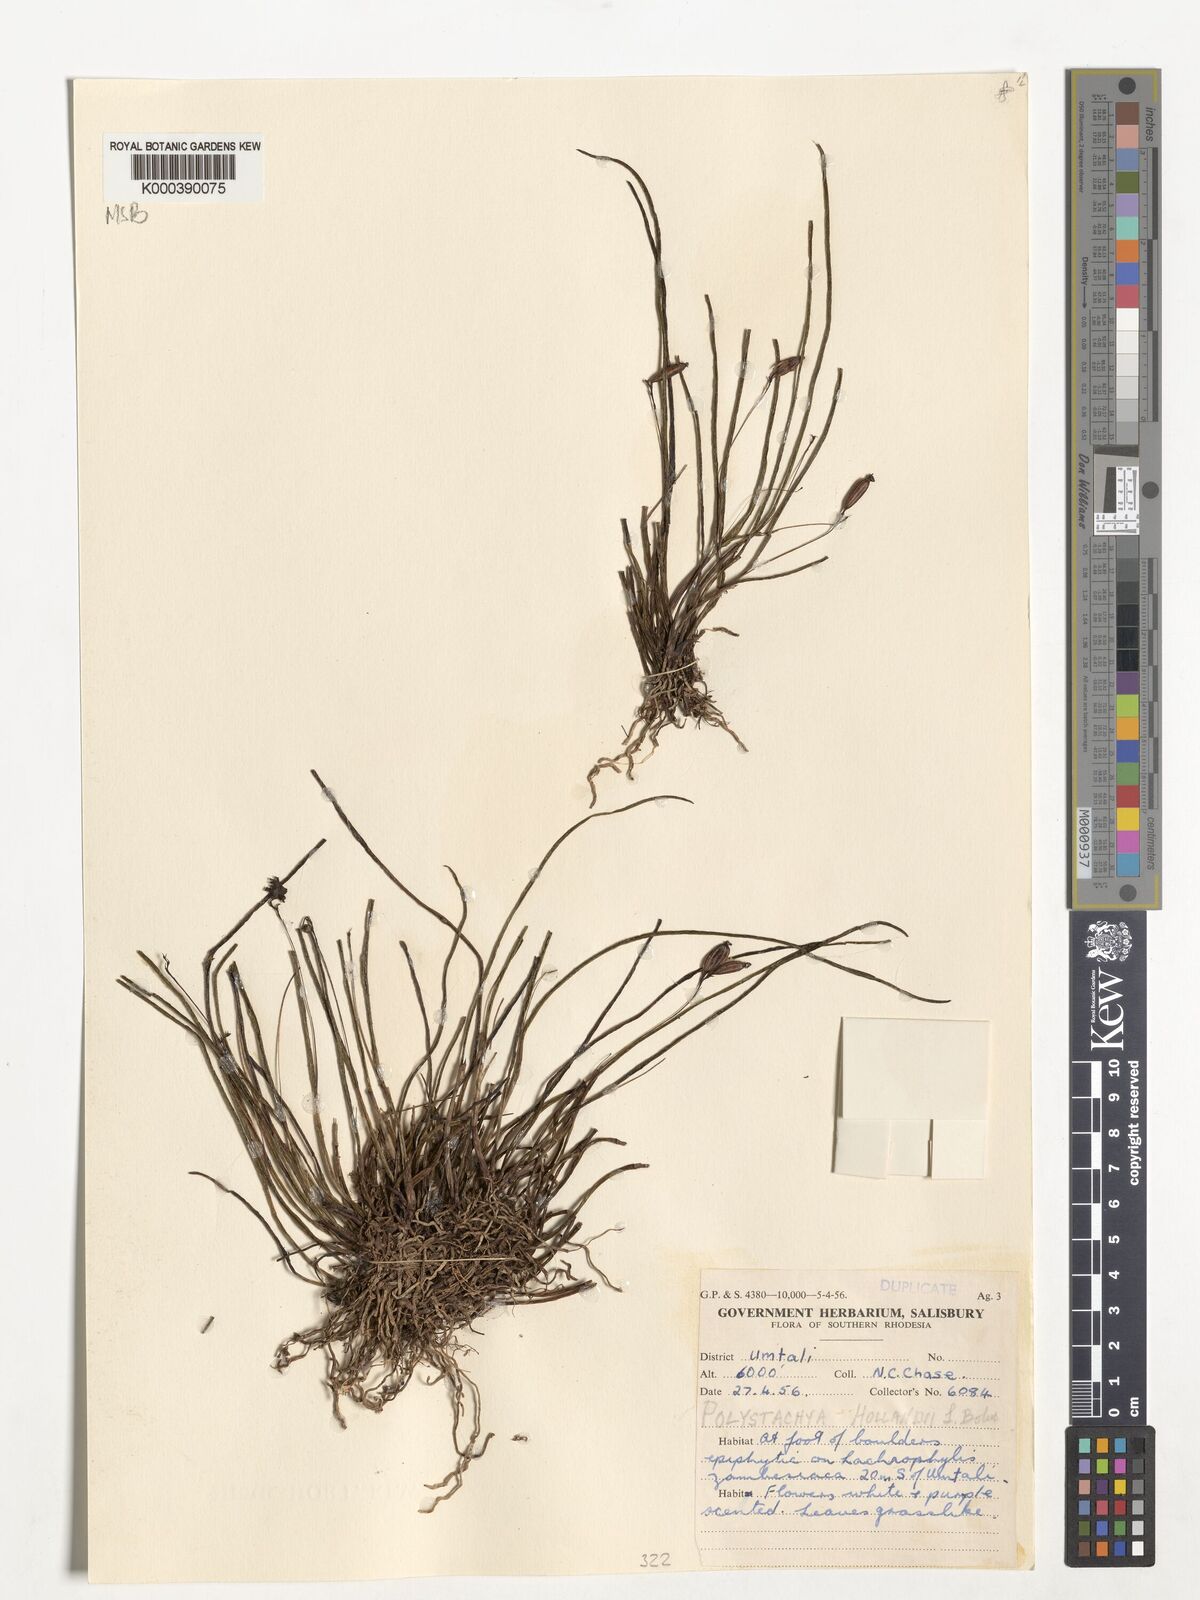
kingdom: Plantae
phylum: Tracheophyta
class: Liliopsida
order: Asparagales
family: Orchidaceae
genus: Polystachya
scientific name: Polystachya caespitifica
